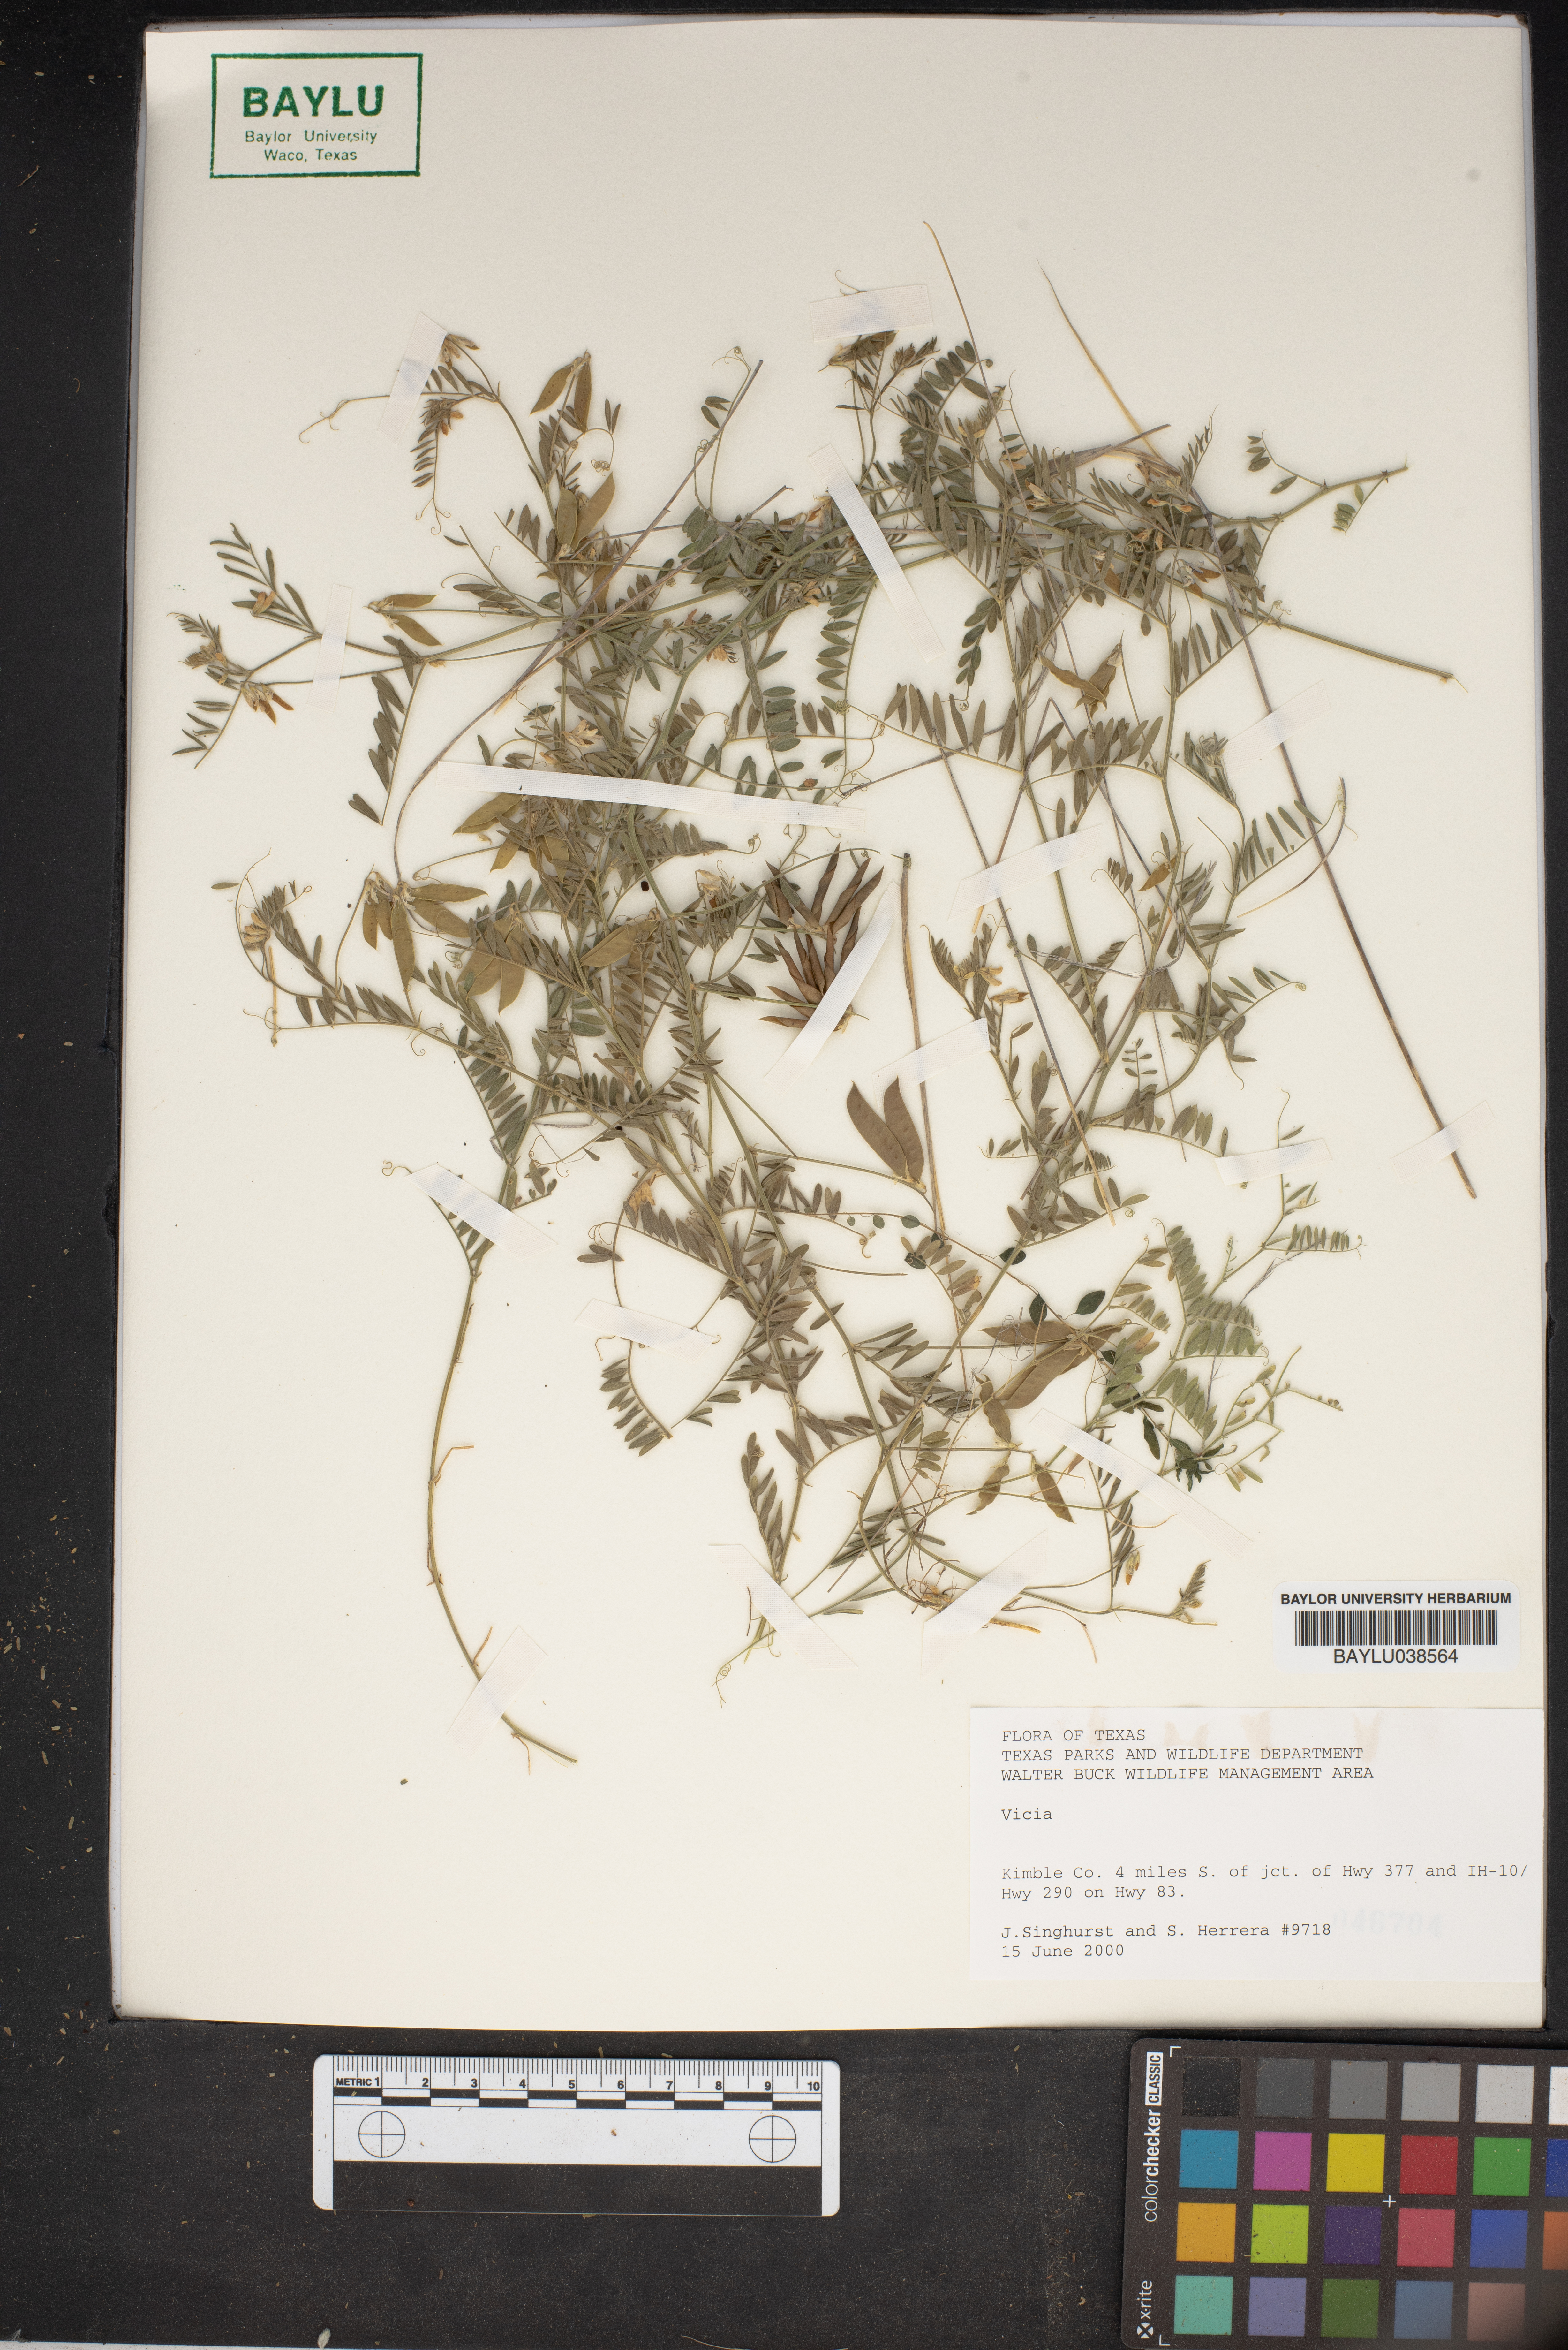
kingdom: Plantae
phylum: Tracheophyta
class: Magnoliopsida
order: Fabales
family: Fabaceae
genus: Vicia
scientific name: Vicia
